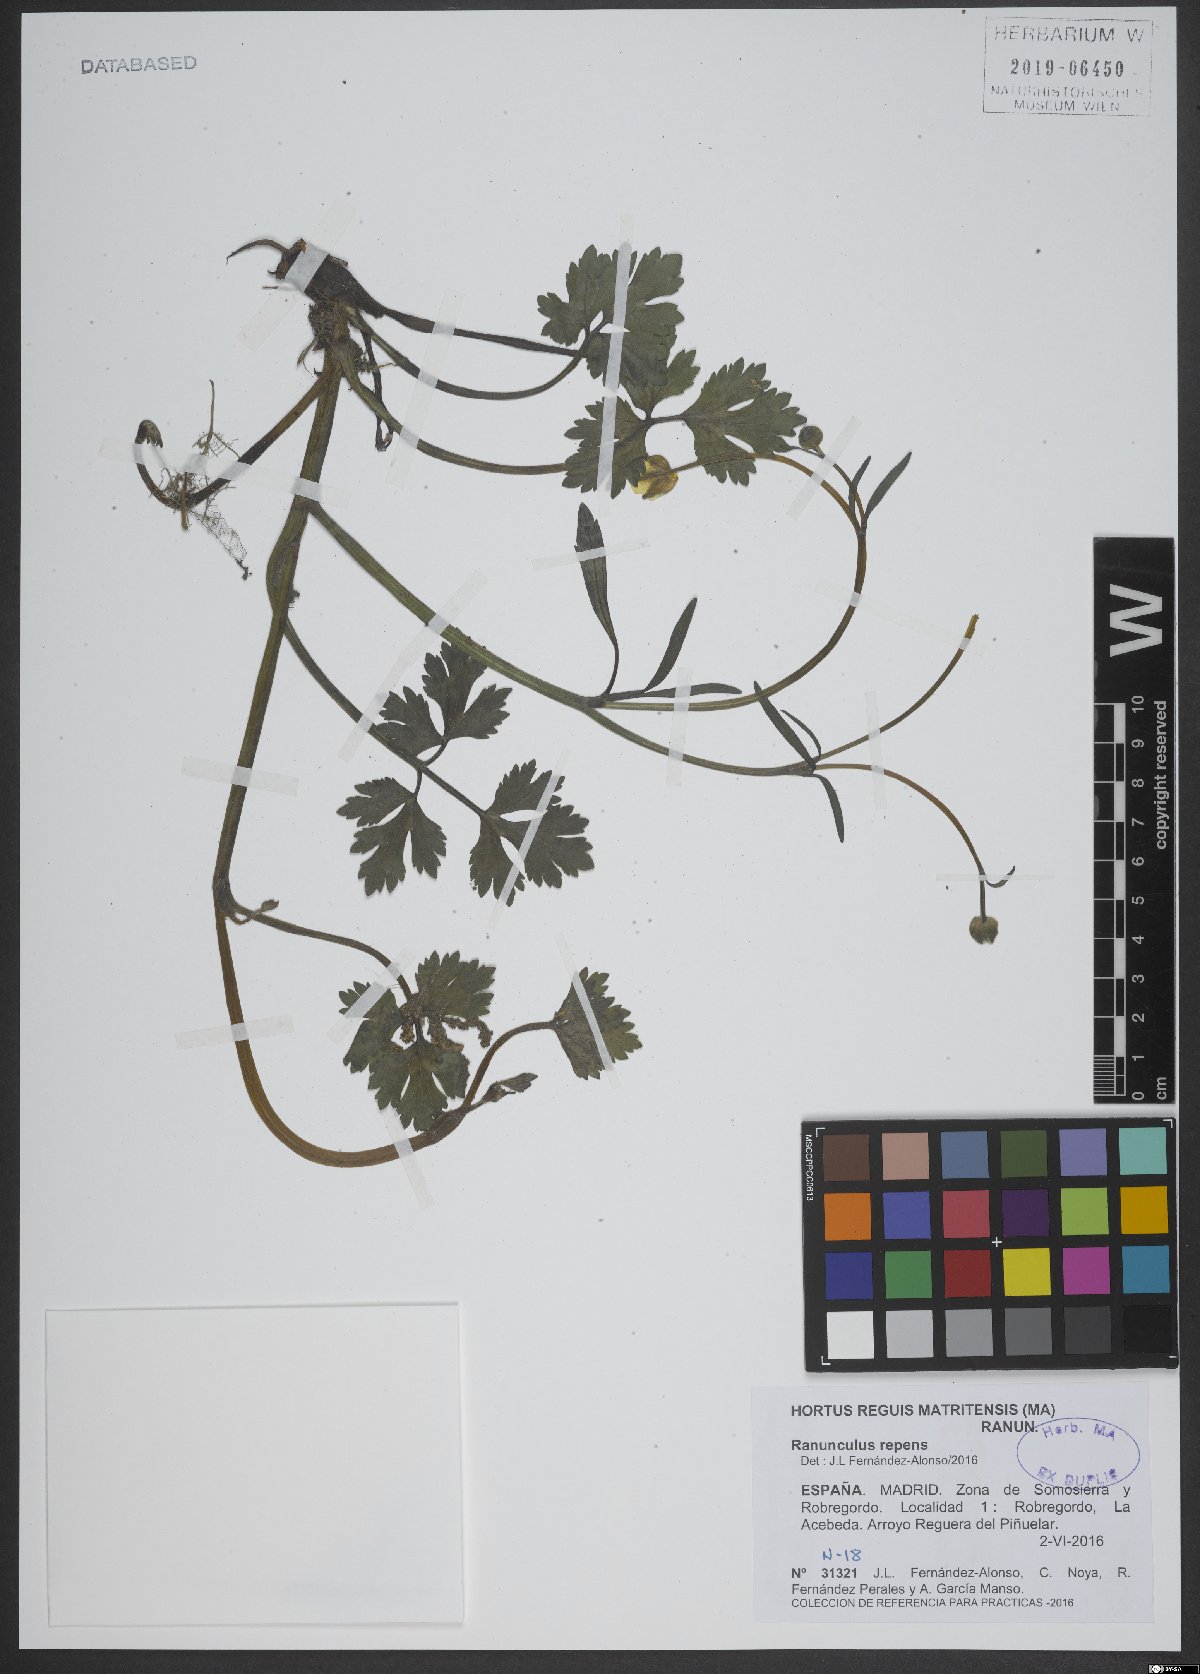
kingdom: Plantae
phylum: Tracheophyta
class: Magnoliopsida
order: Ranunculales
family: Ranunculaceae
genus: Ranunculus
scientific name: Ranunculus repens
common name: Creeping buttercup
